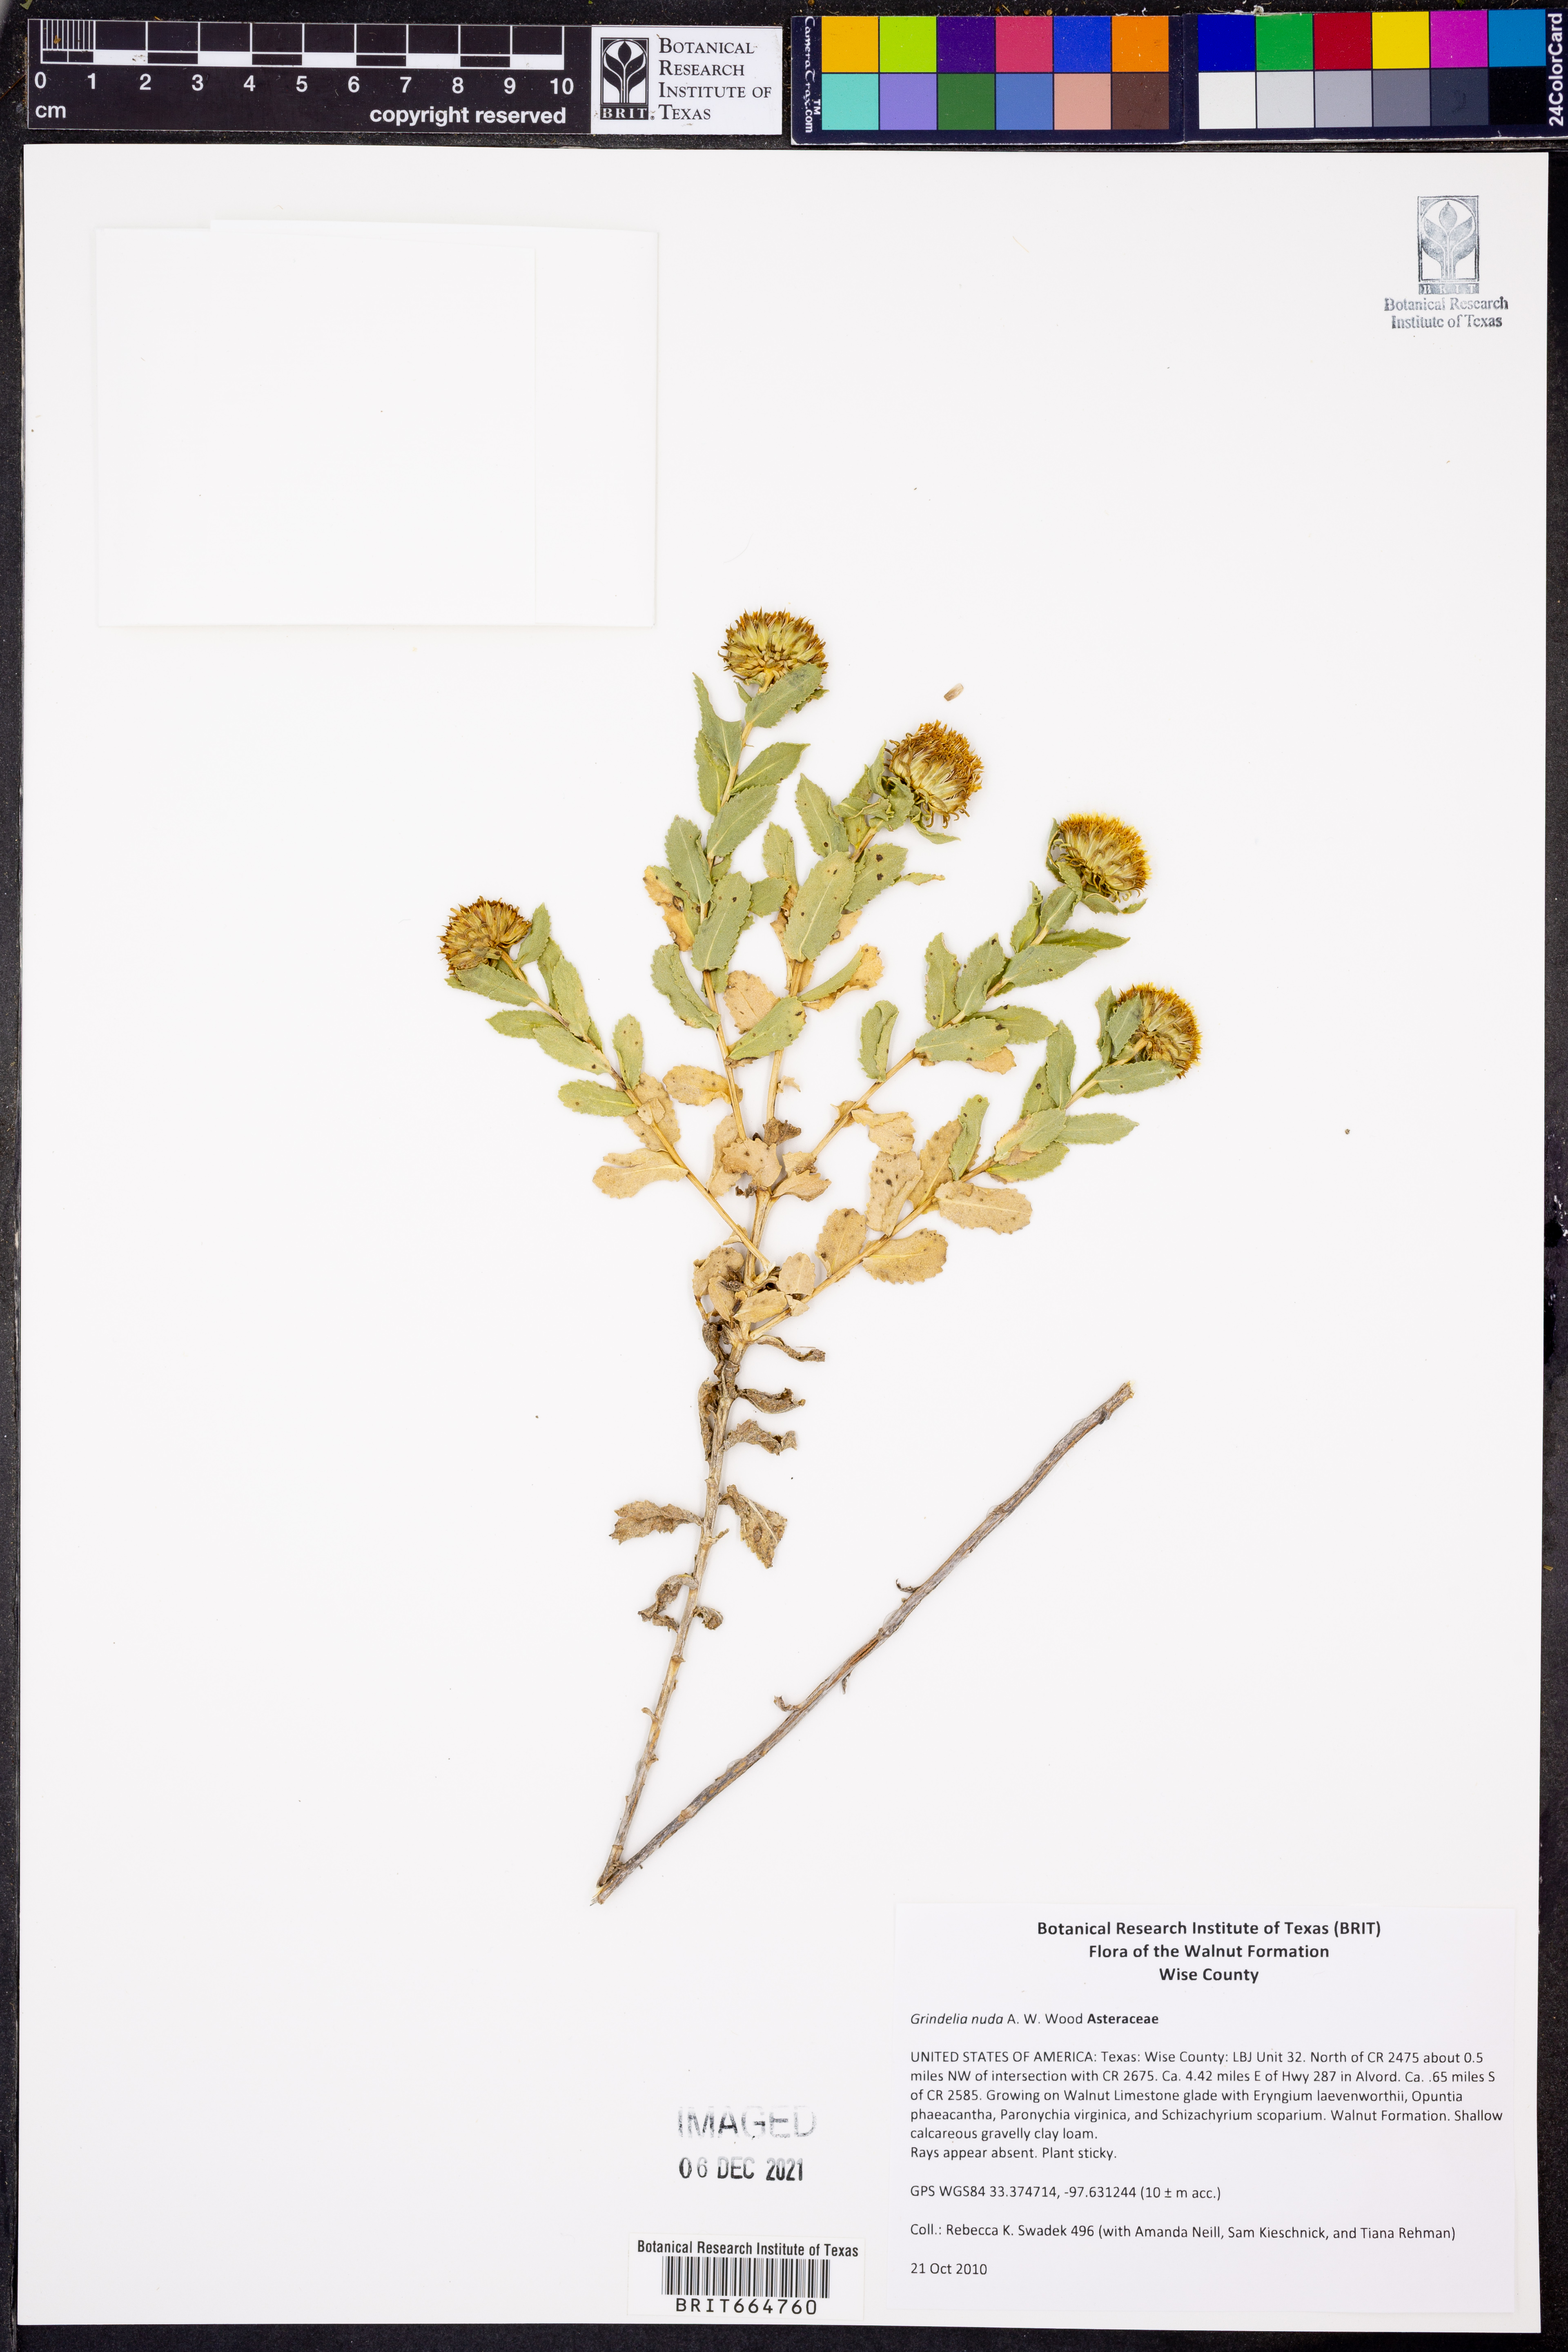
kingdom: Plantae
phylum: Tracheophyta
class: Magnoliopsida
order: Asterales
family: Asteraceae
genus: Grindelia
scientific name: Grindelia nuda
